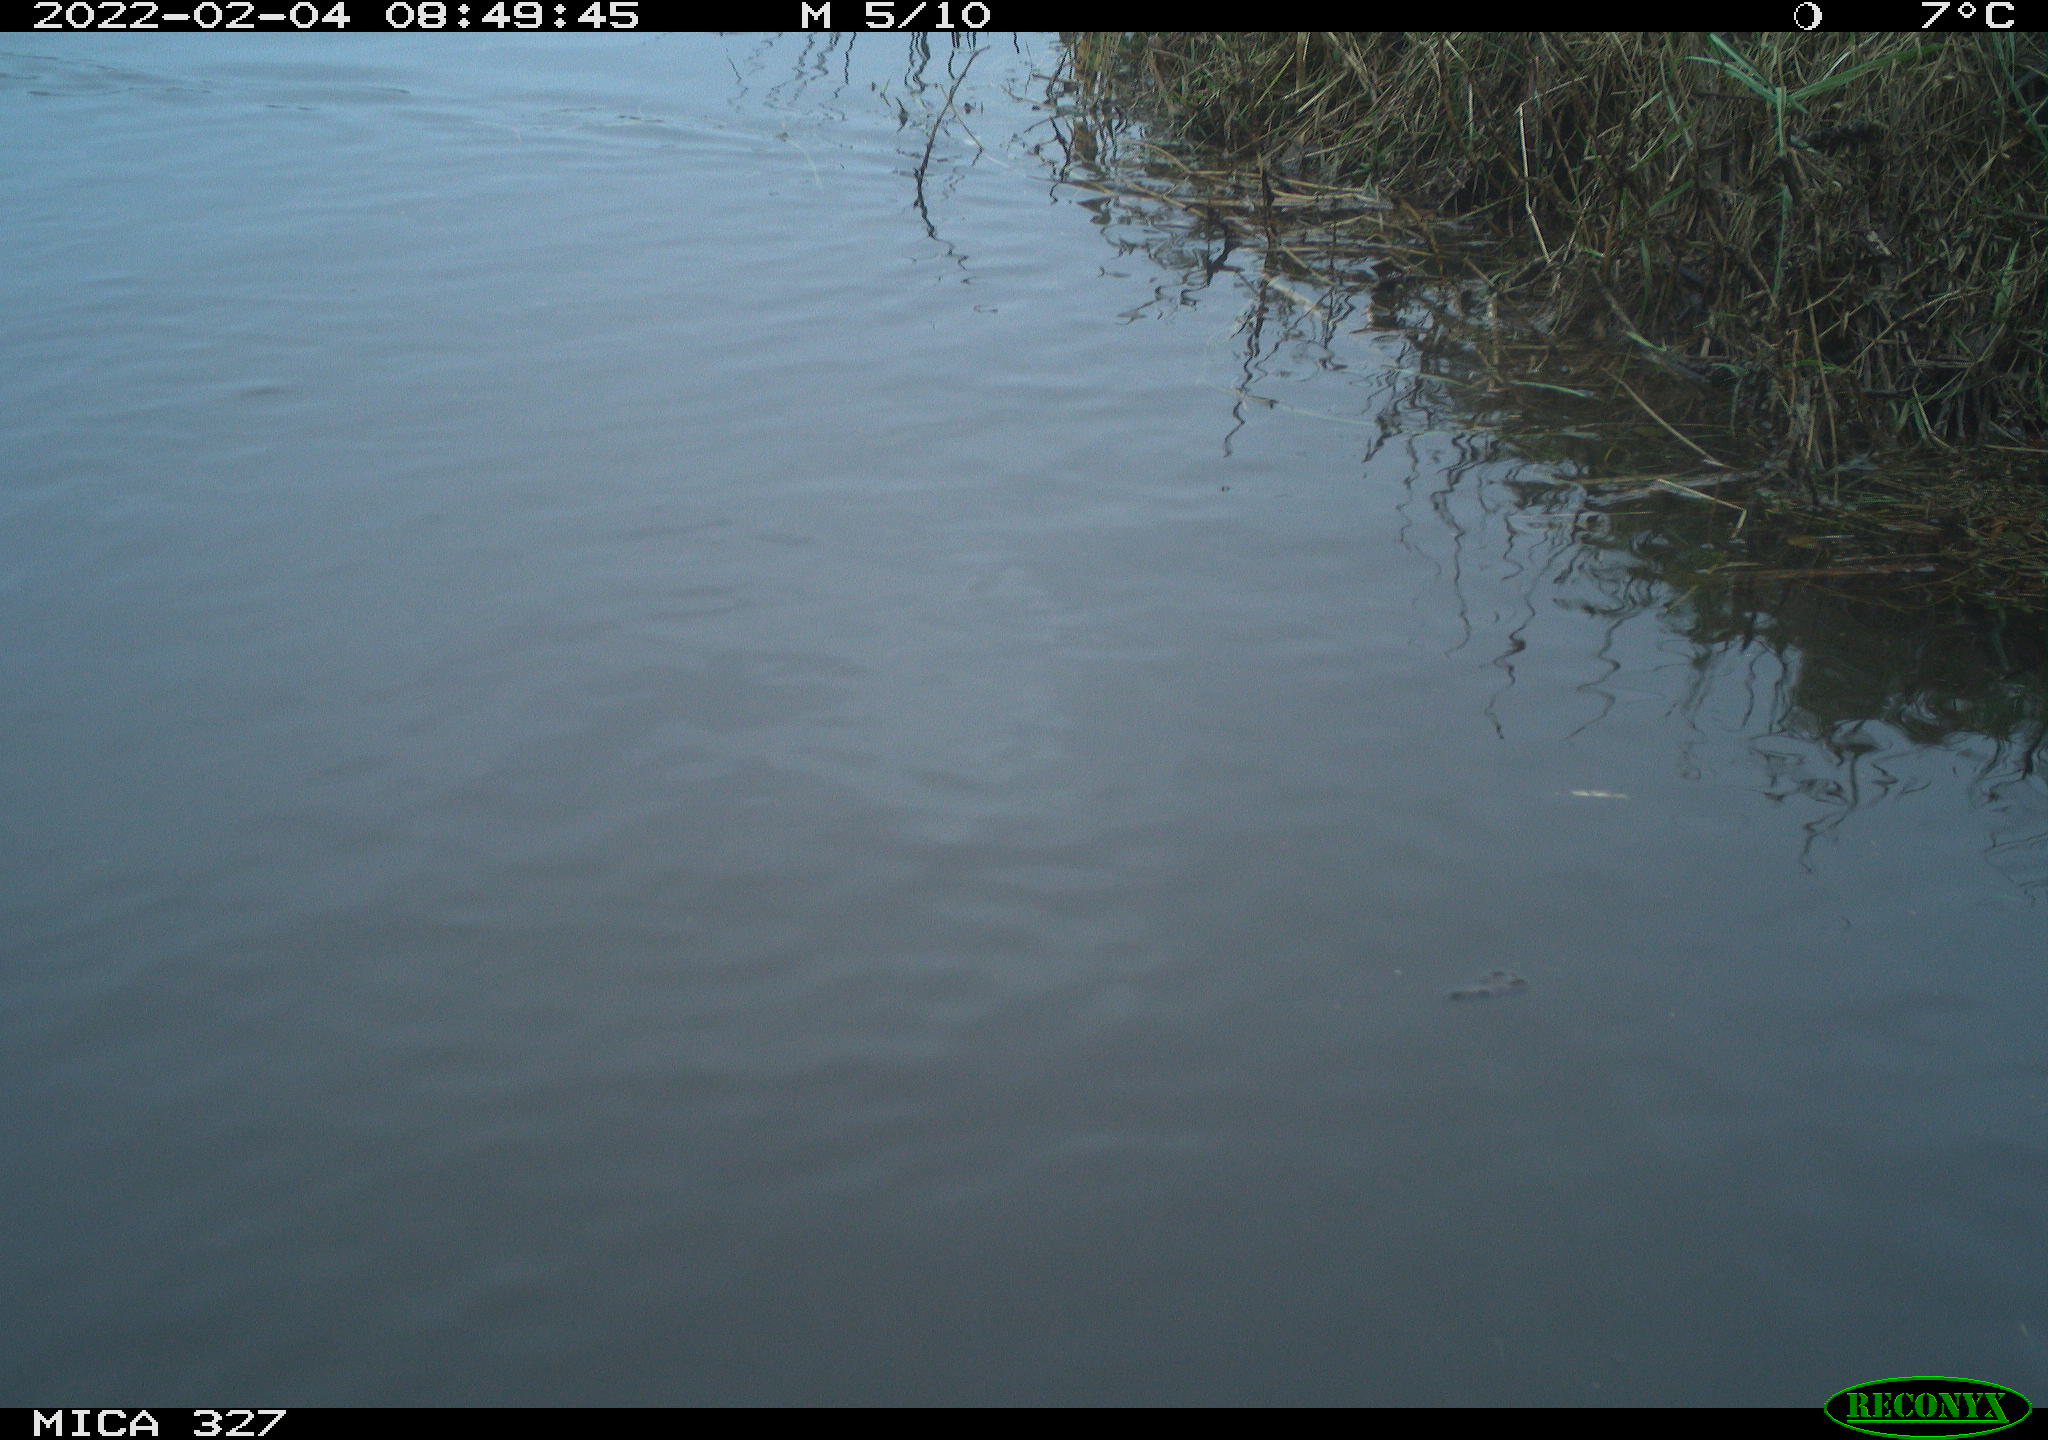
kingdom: Animalia
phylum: Chordata
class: Aves
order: Podicipediformes
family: Podicipedidae
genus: Tachybaptus
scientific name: Tachybaptus ruficollis
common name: Little grebe
